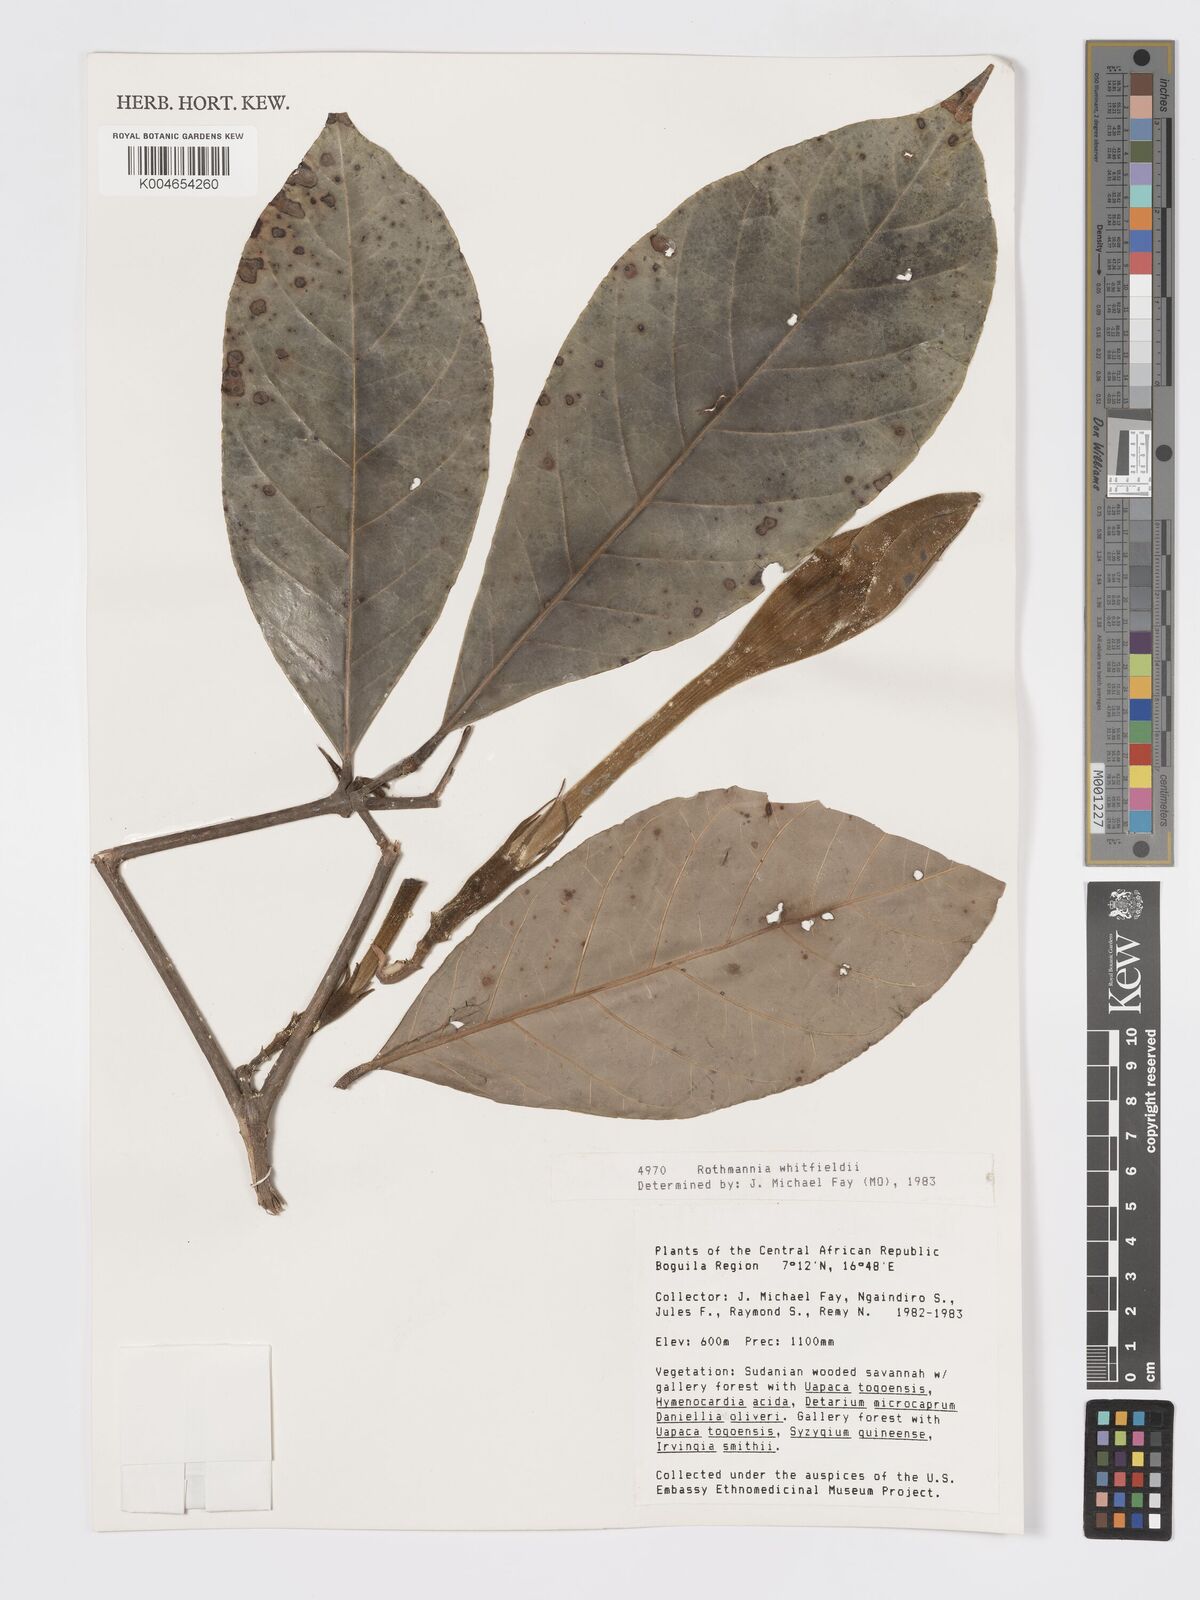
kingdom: Plantae
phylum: Tracheophyta
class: Magnoliopsida
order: Gentianales
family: Rubiaceae
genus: Rothmannia
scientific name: Rothmannia whitfieldii
